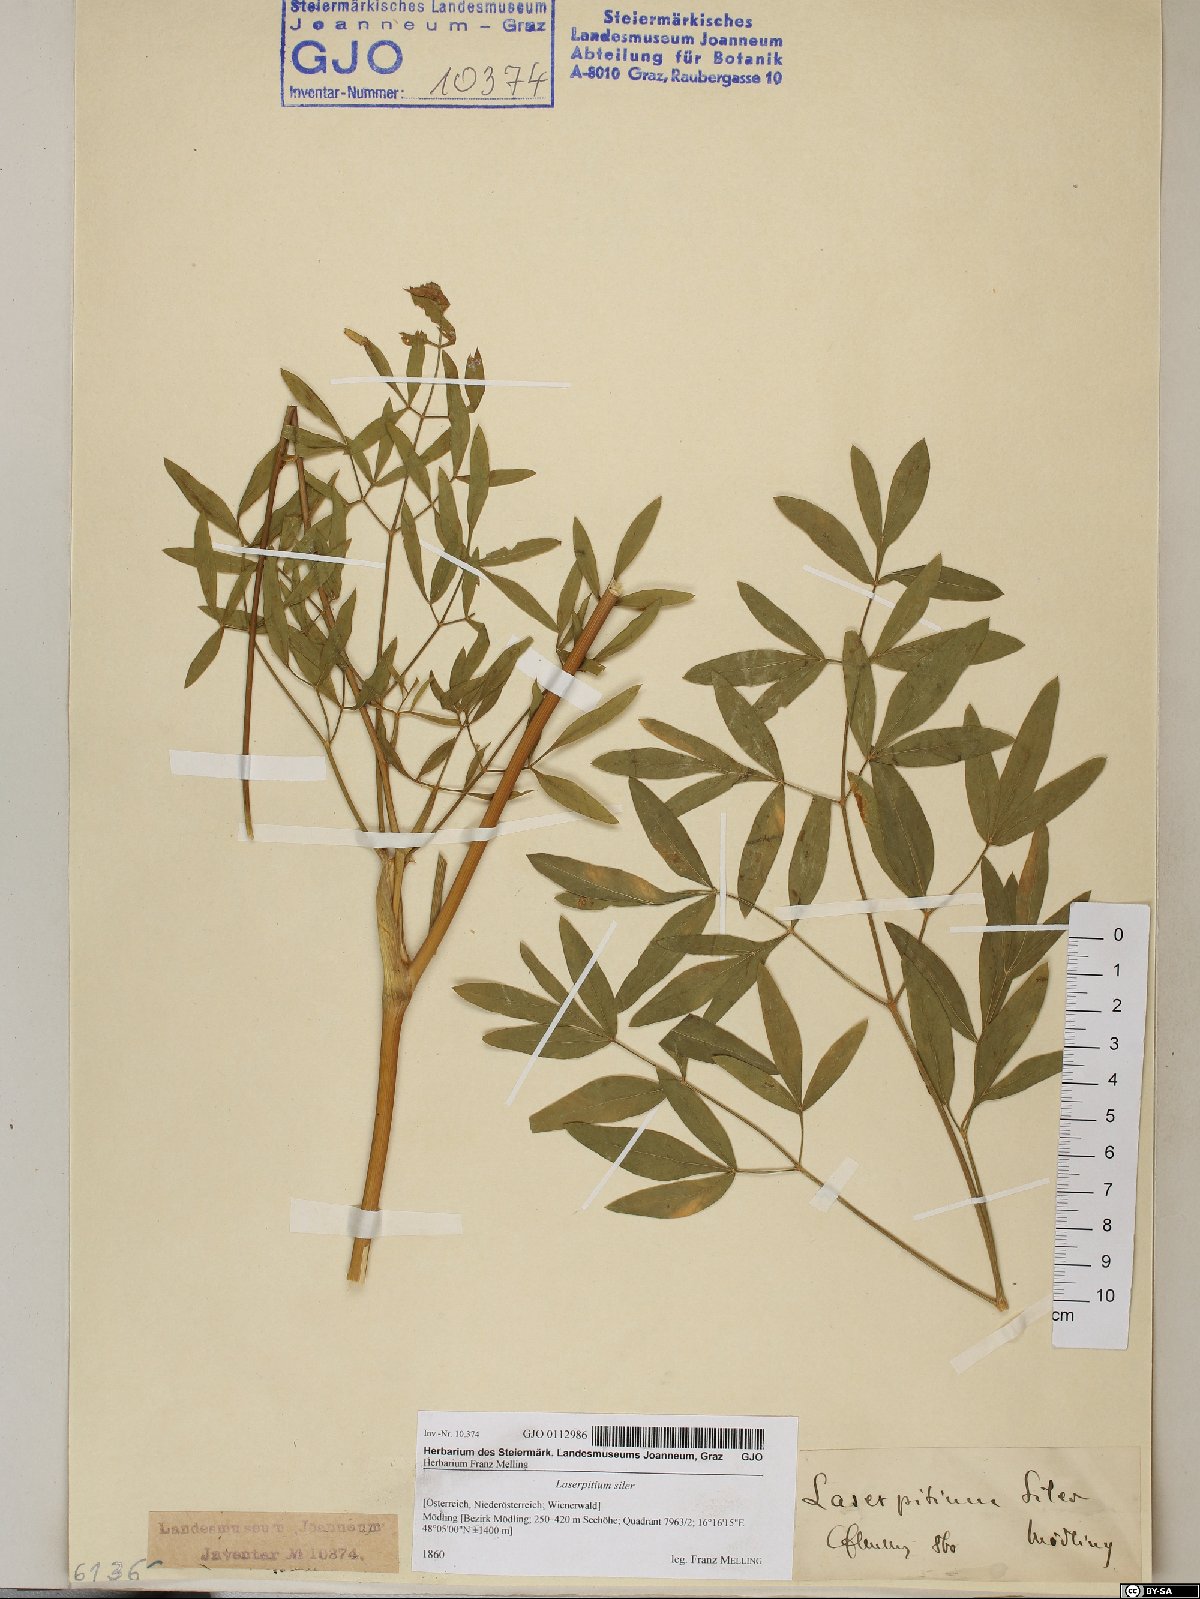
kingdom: Plantae
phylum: Tracheophyta
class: Magnoliopsida
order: Apiales
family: Apiaceae
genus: Siler
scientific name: Siler montanum
